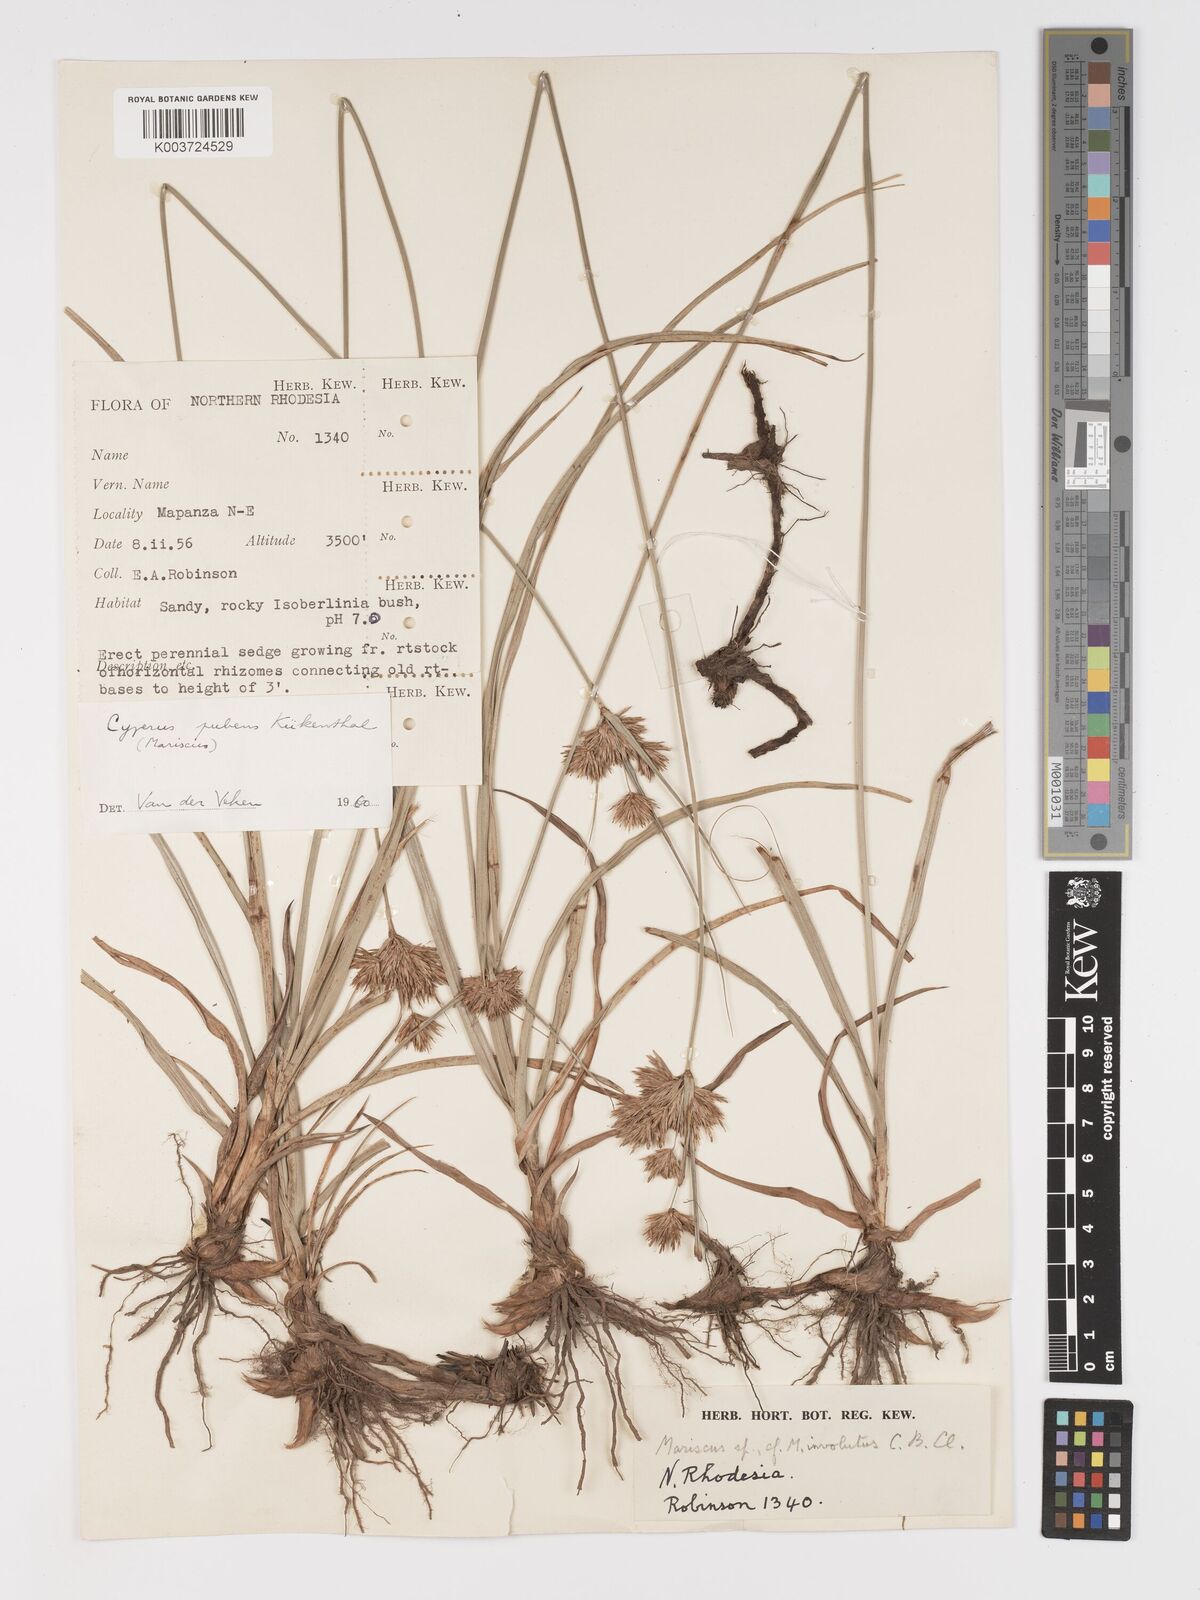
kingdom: Plantae
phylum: Tracheophyta
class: Liliopsida
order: Poales
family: Cyperaceae
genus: Cyperus
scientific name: Cyperus pubens
